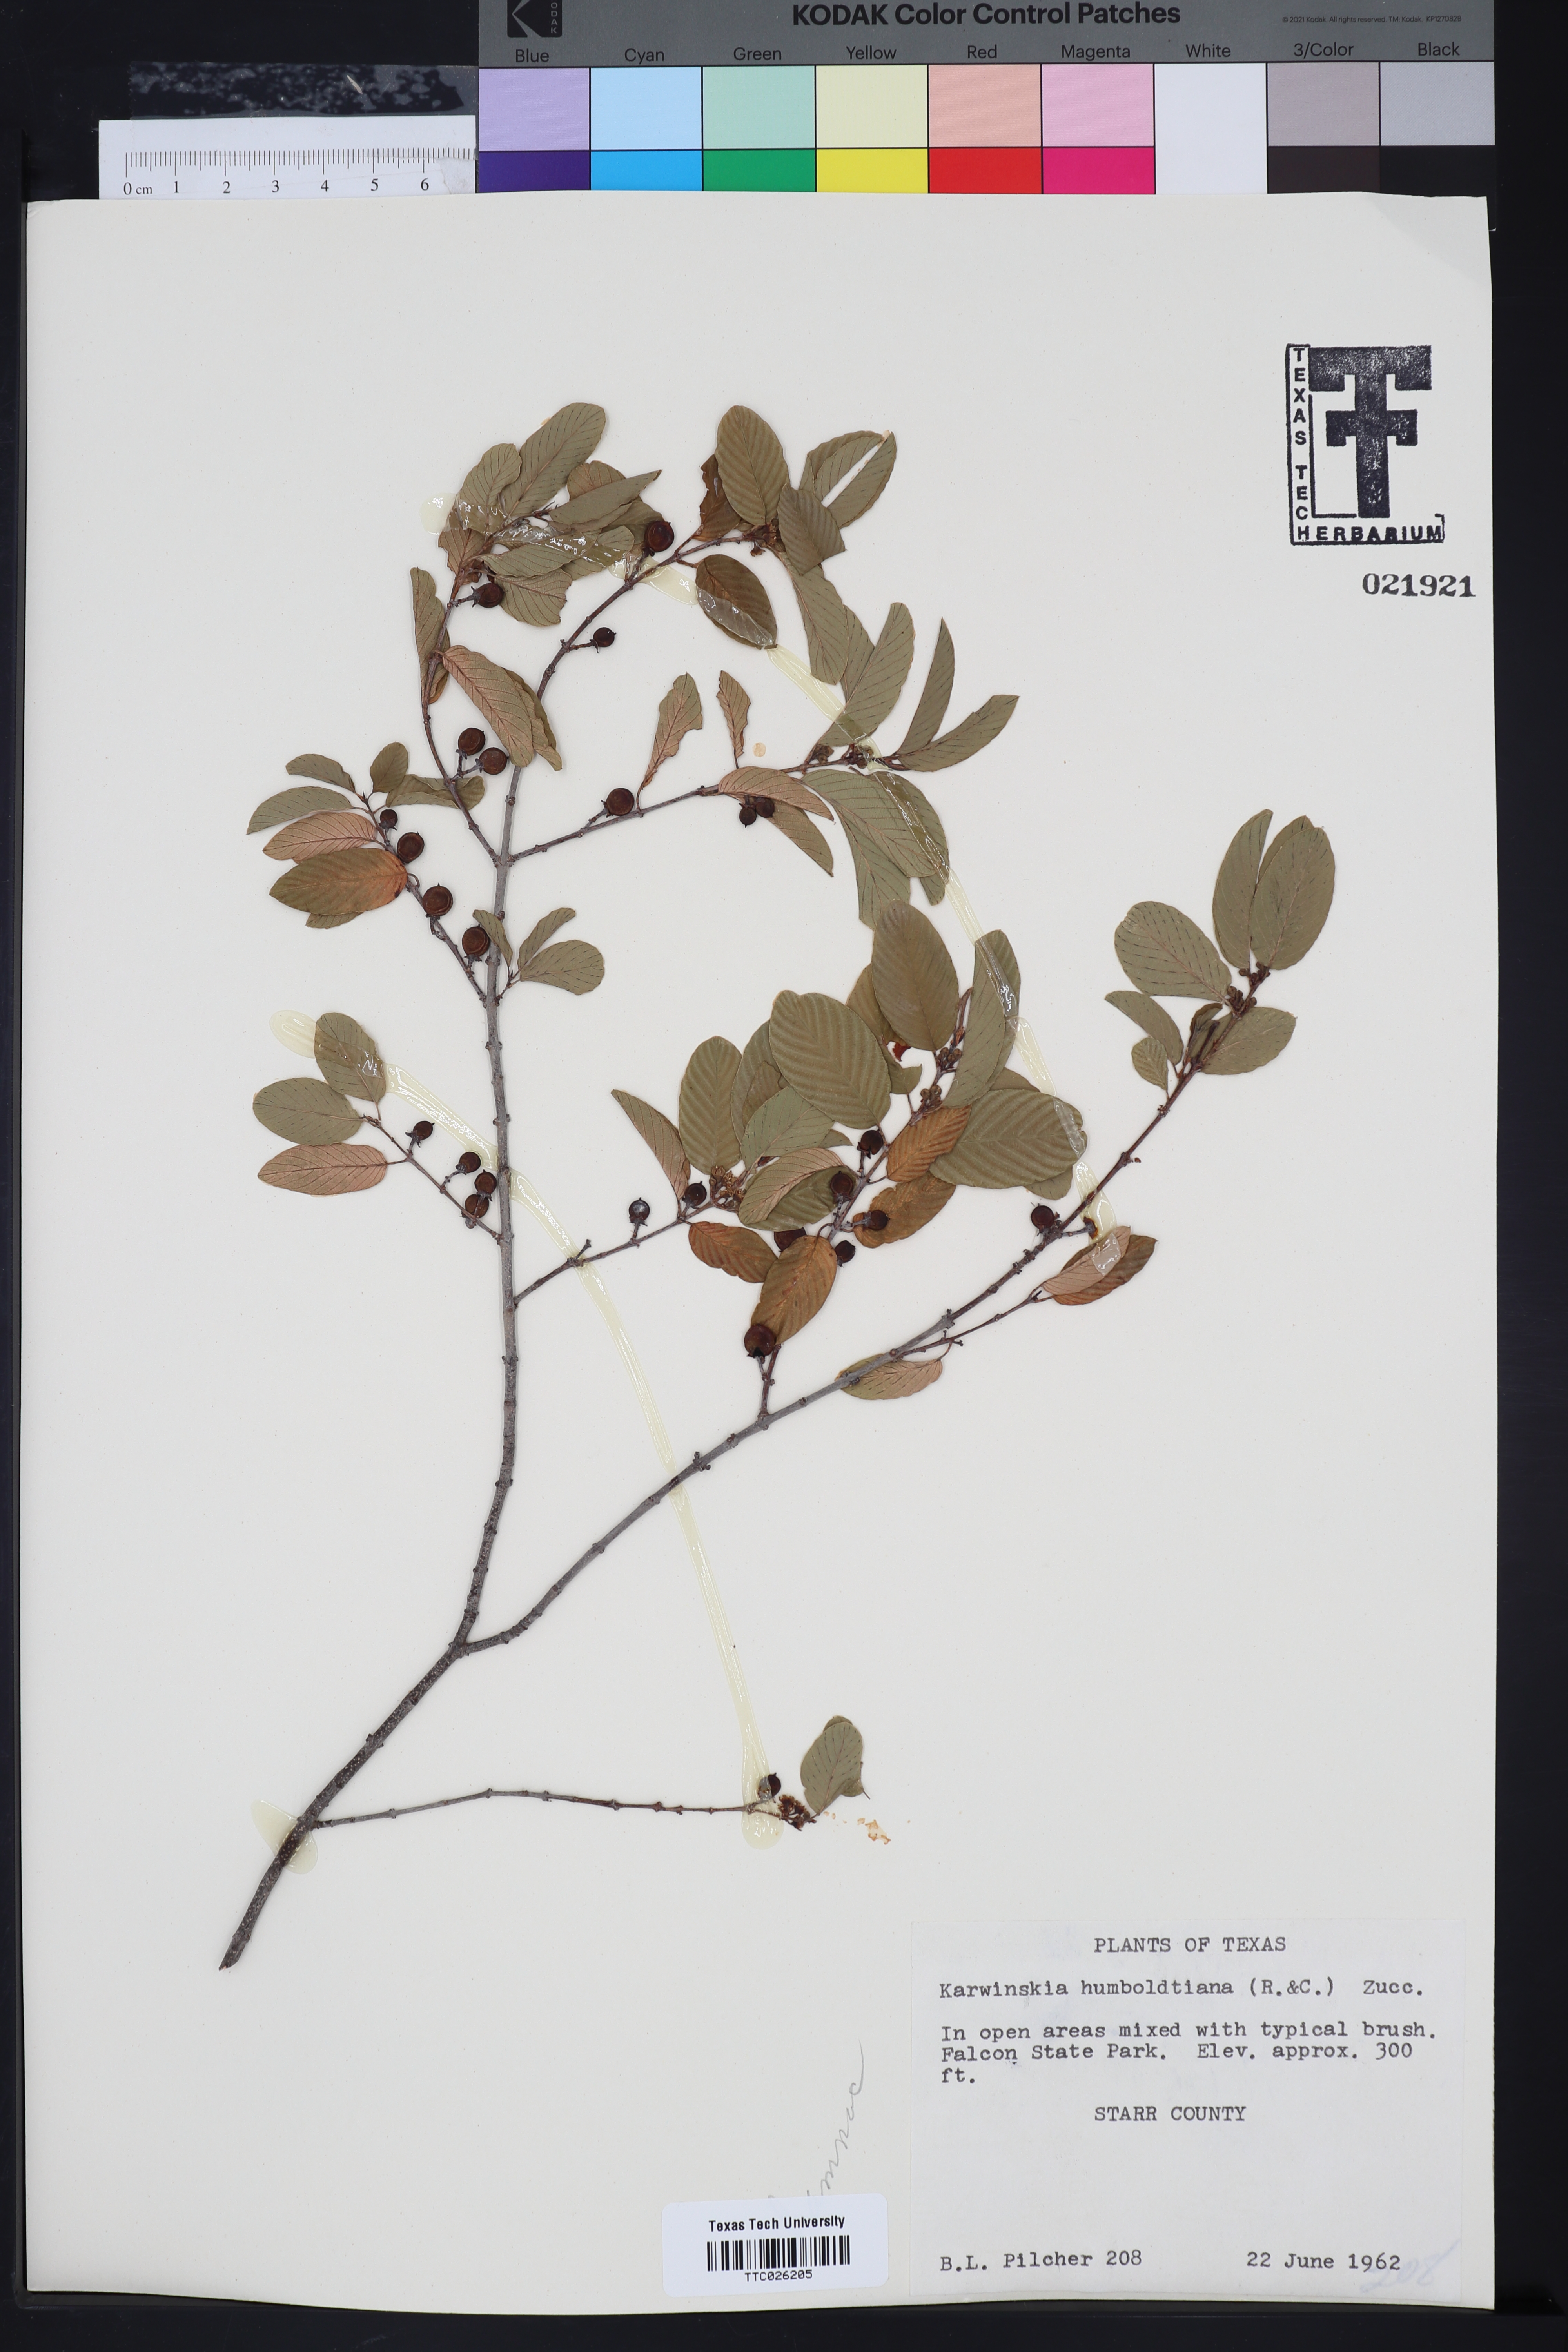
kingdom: Plantae
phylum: Tracheophyta
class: Magnoliopsida
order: Rosales
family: Rhamnaceae
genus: Karwinskia
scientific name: Karwinskia humboldtiana
